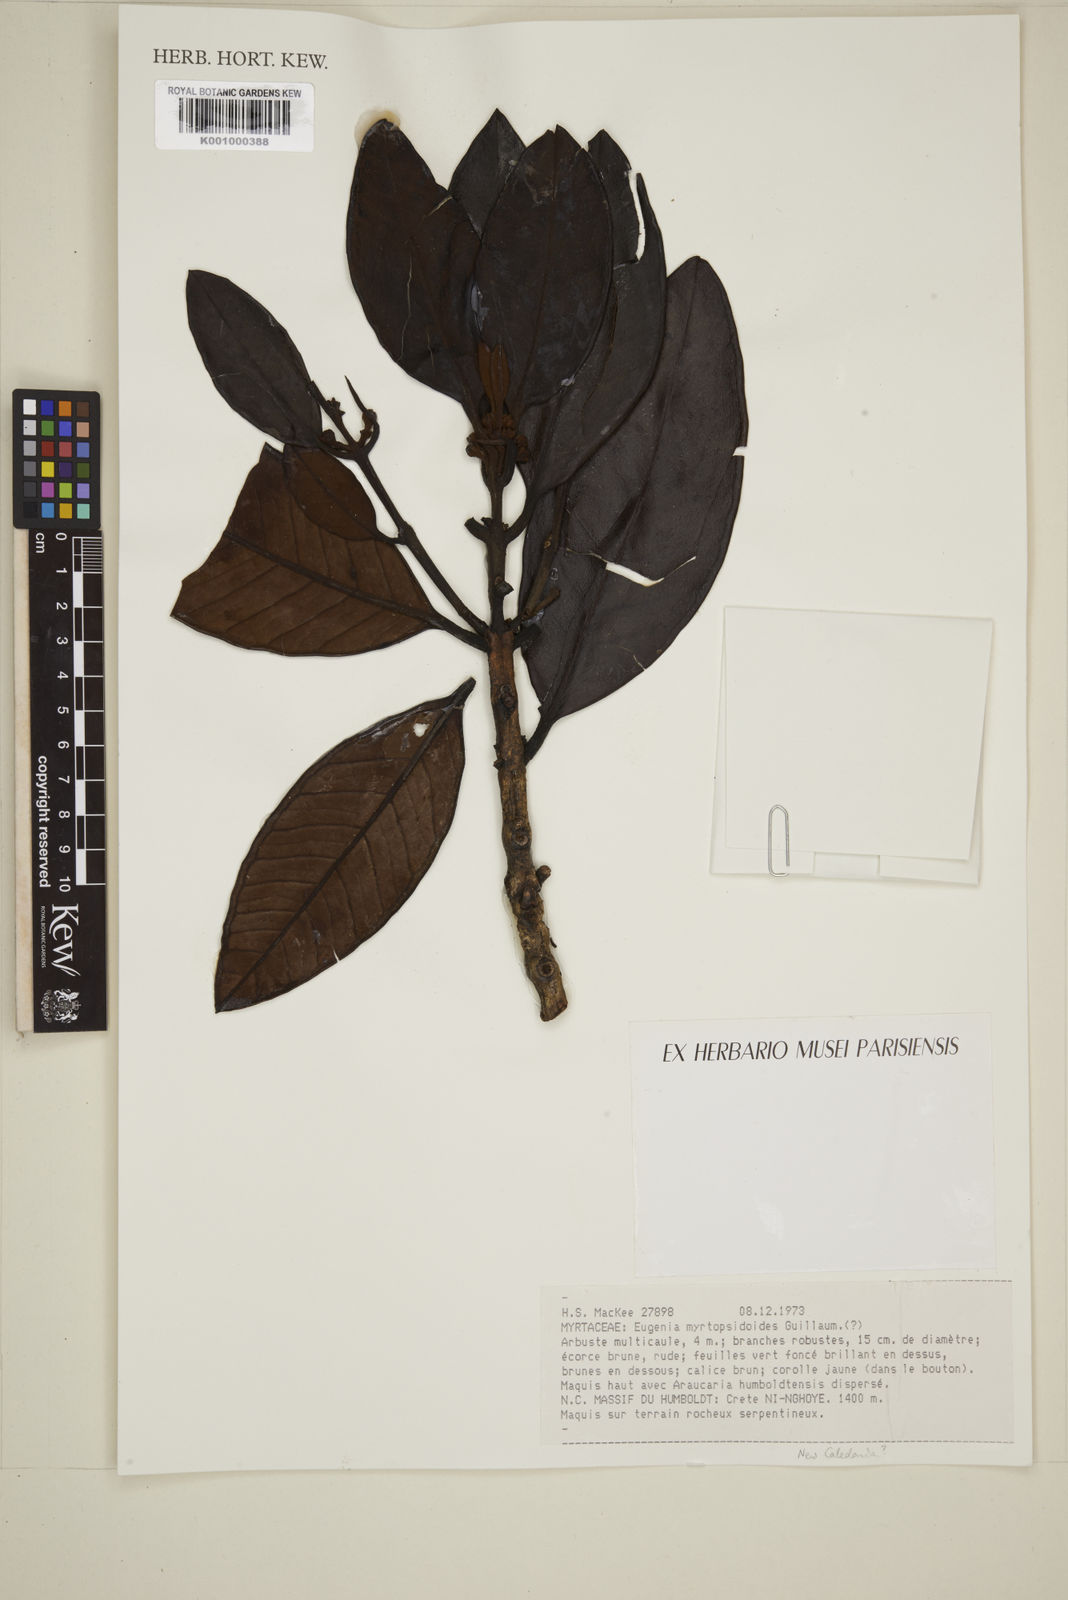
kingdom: Plantae
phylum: Tracheophyta
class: Magnoliopsida
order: Myrtales
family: Myrtaceae
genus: Kanakomyrtus
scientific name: Kanakomyrtus myrtopsidoides
